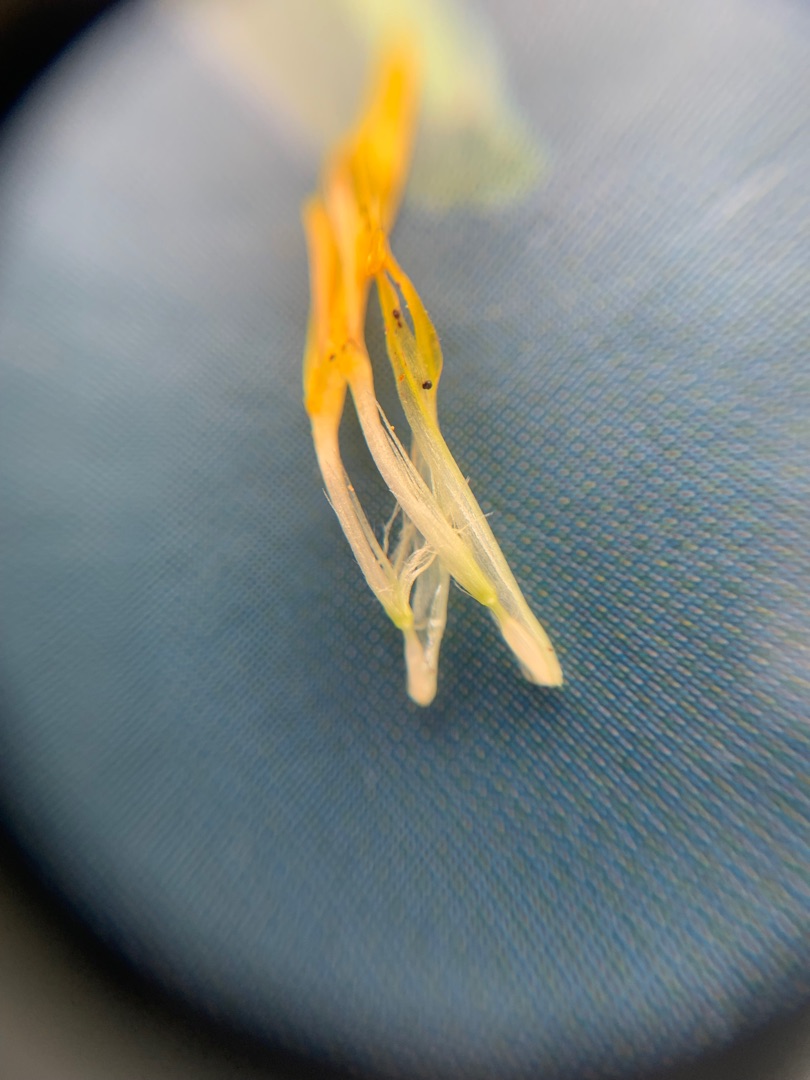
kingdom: Plantae
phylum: Tracheophyta
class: Magnoliopsida
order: Asterales
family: Asteraceae
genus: Hypochaeris
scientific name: Hypochaeris radicata
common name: Almindelig kongepen
